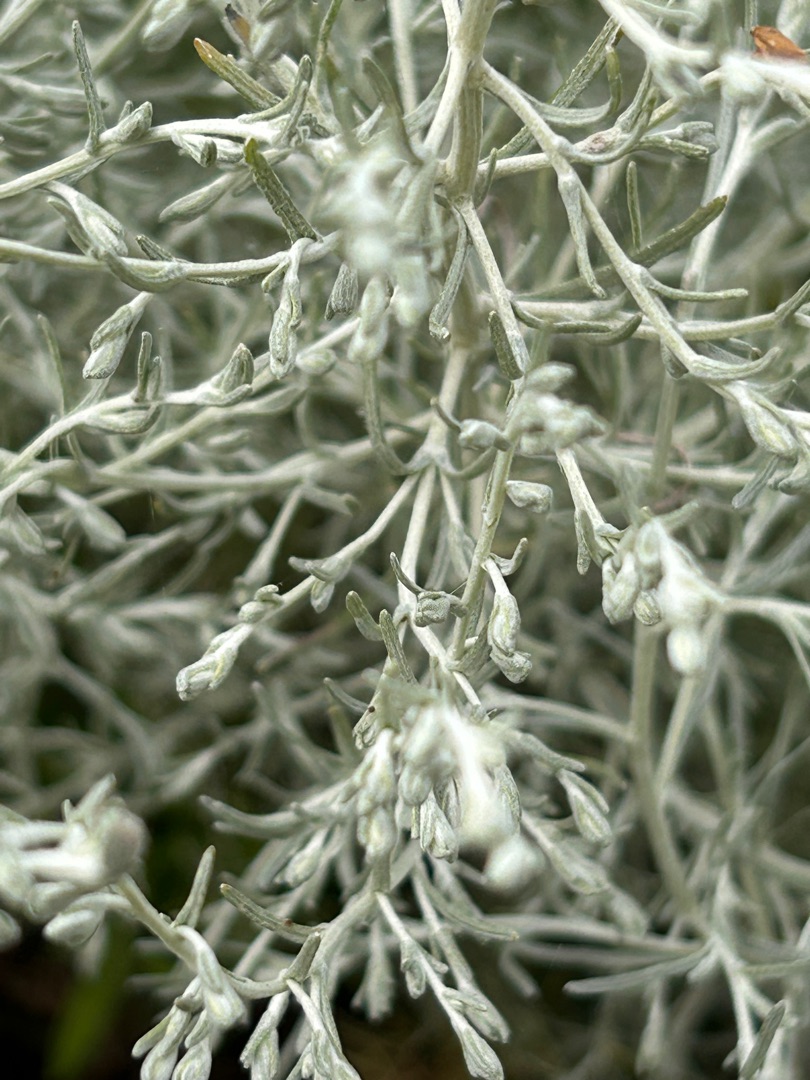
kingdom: Plantae
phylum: Tracheophyta
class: Magnoliopsida
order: Asterales
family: Asteraceae
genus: Artemisia
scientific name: Artemisia maritima
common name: Strandmalurt
